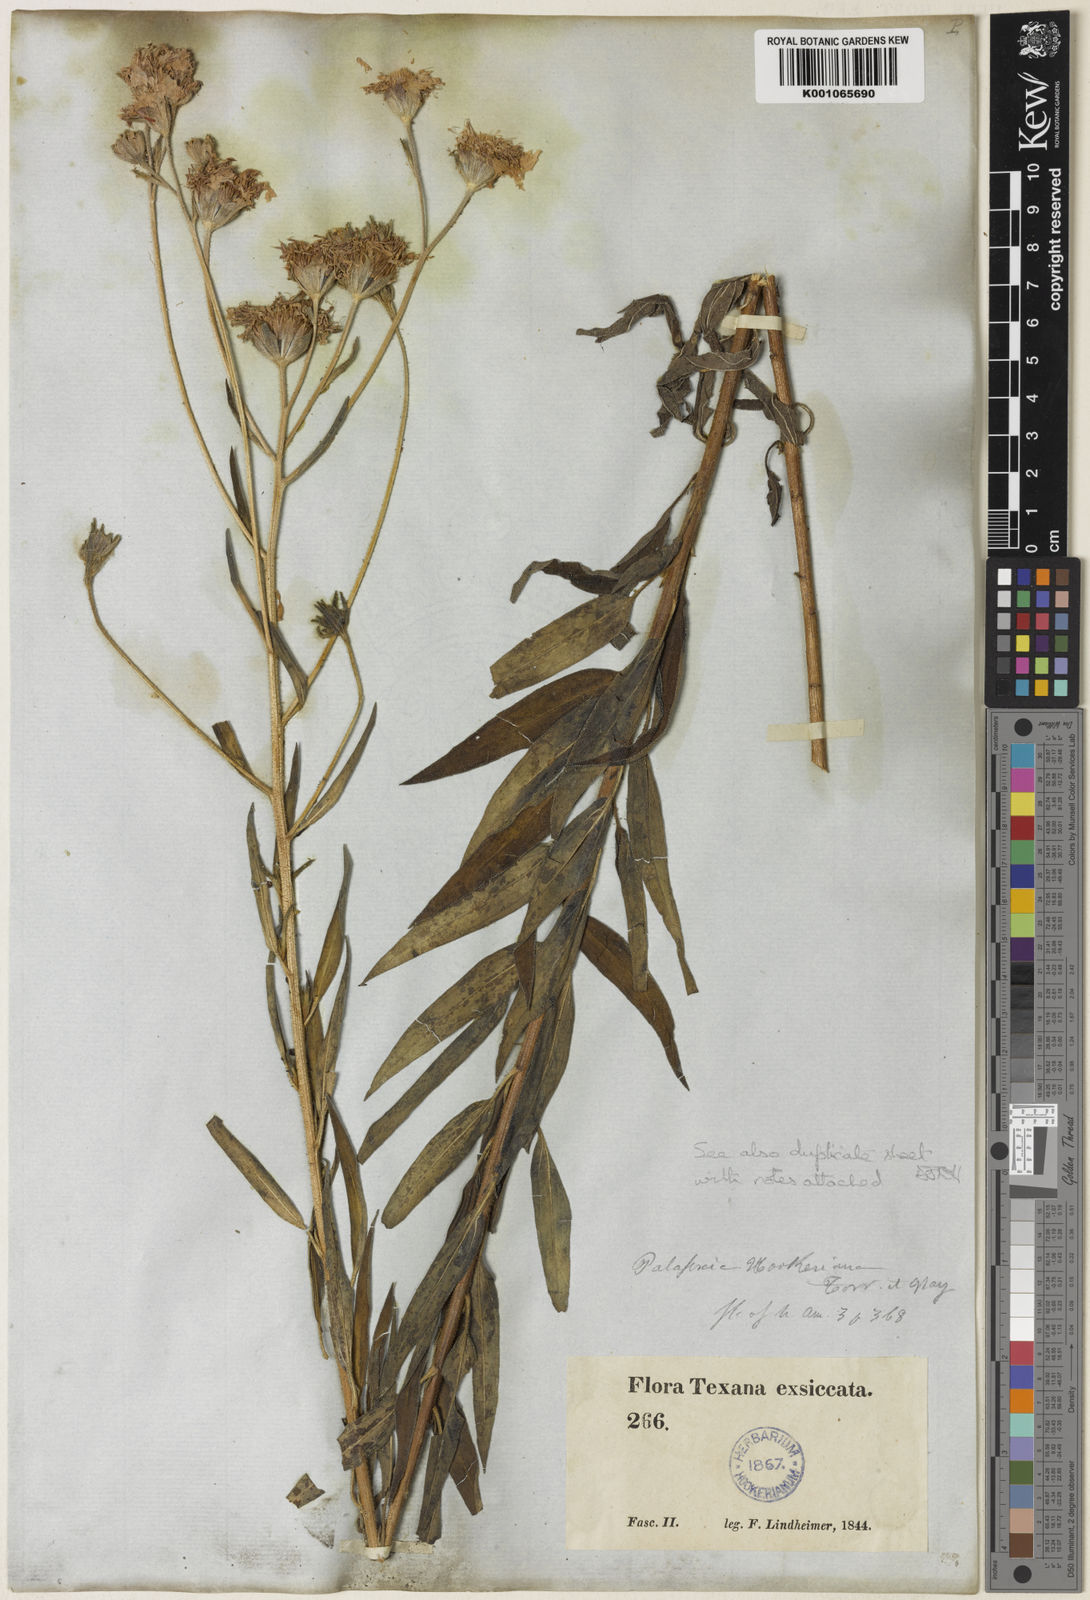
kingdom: Plantae
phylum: Tracheophyta
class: Magnoliopsida
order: Asterales
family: Asteraceae
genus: Palafoxia
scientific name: Palafoxia hookeriana
